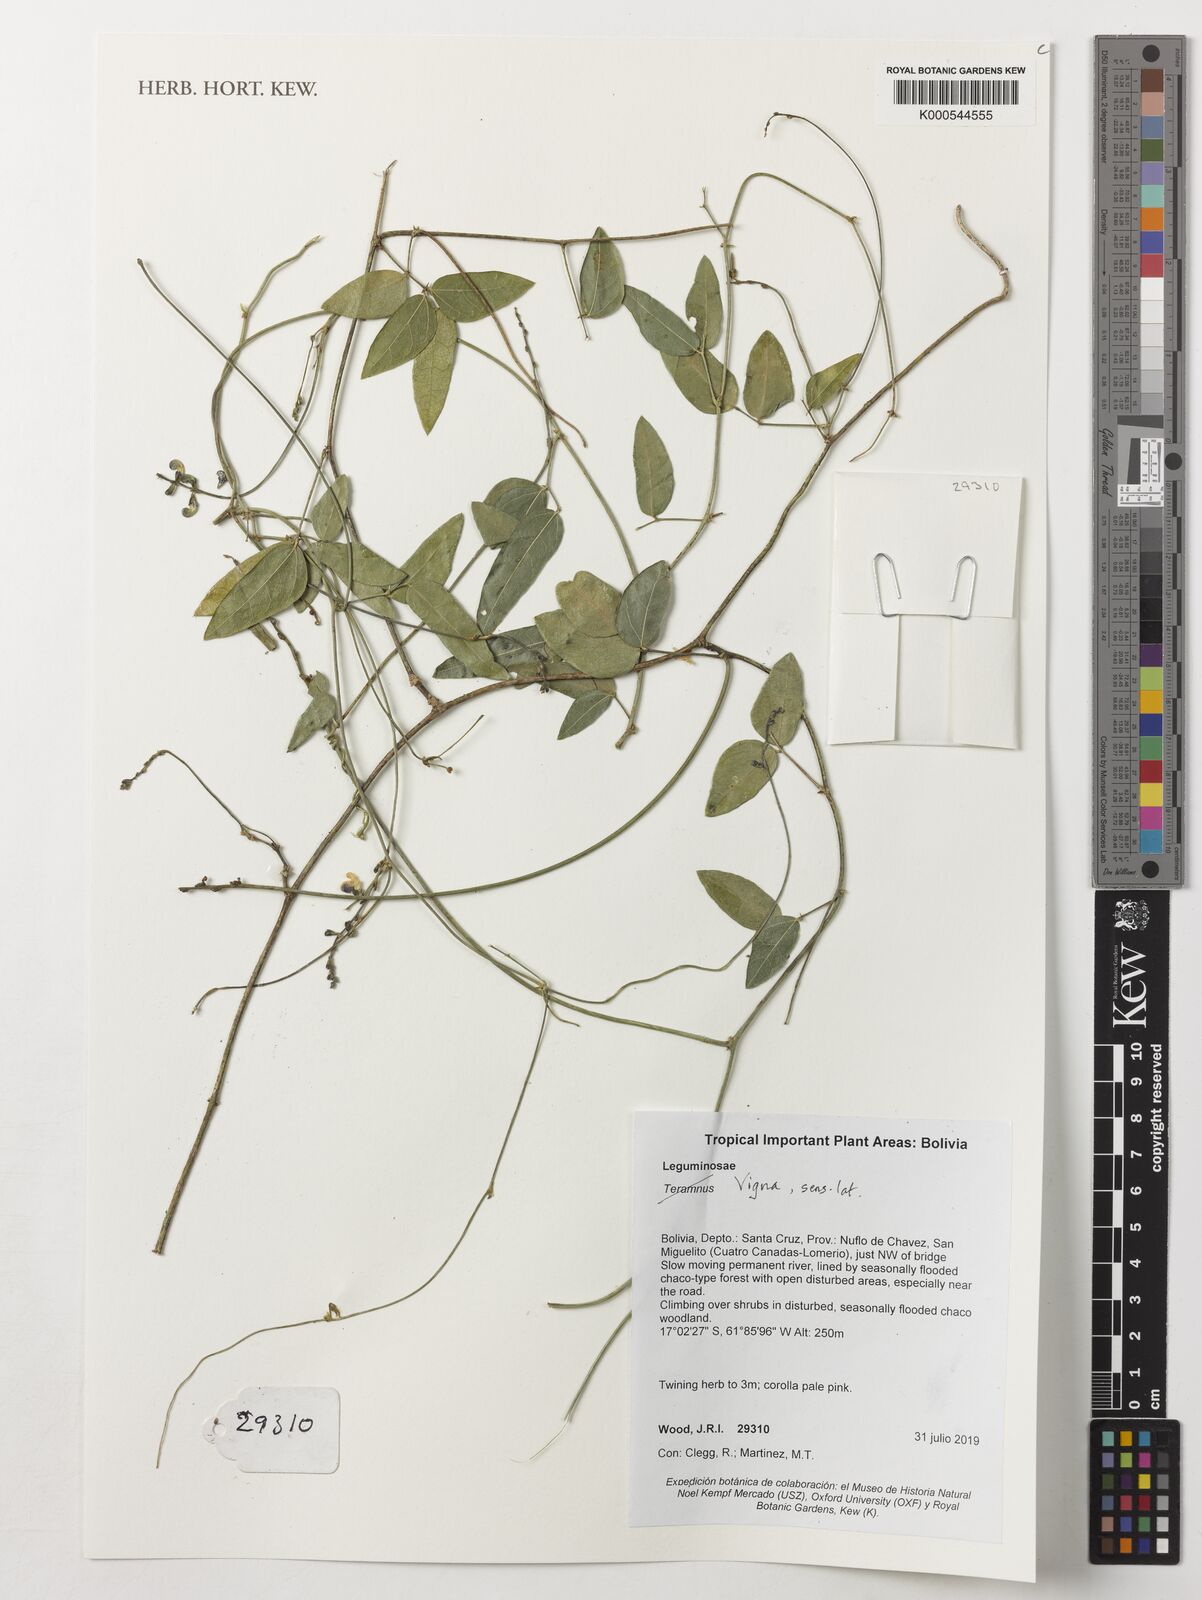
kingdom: Plantae
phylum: Tracheophyta
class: Magnoliopsida
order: Fabales
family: Fabaceae
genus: Vigna
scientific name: Vigna
